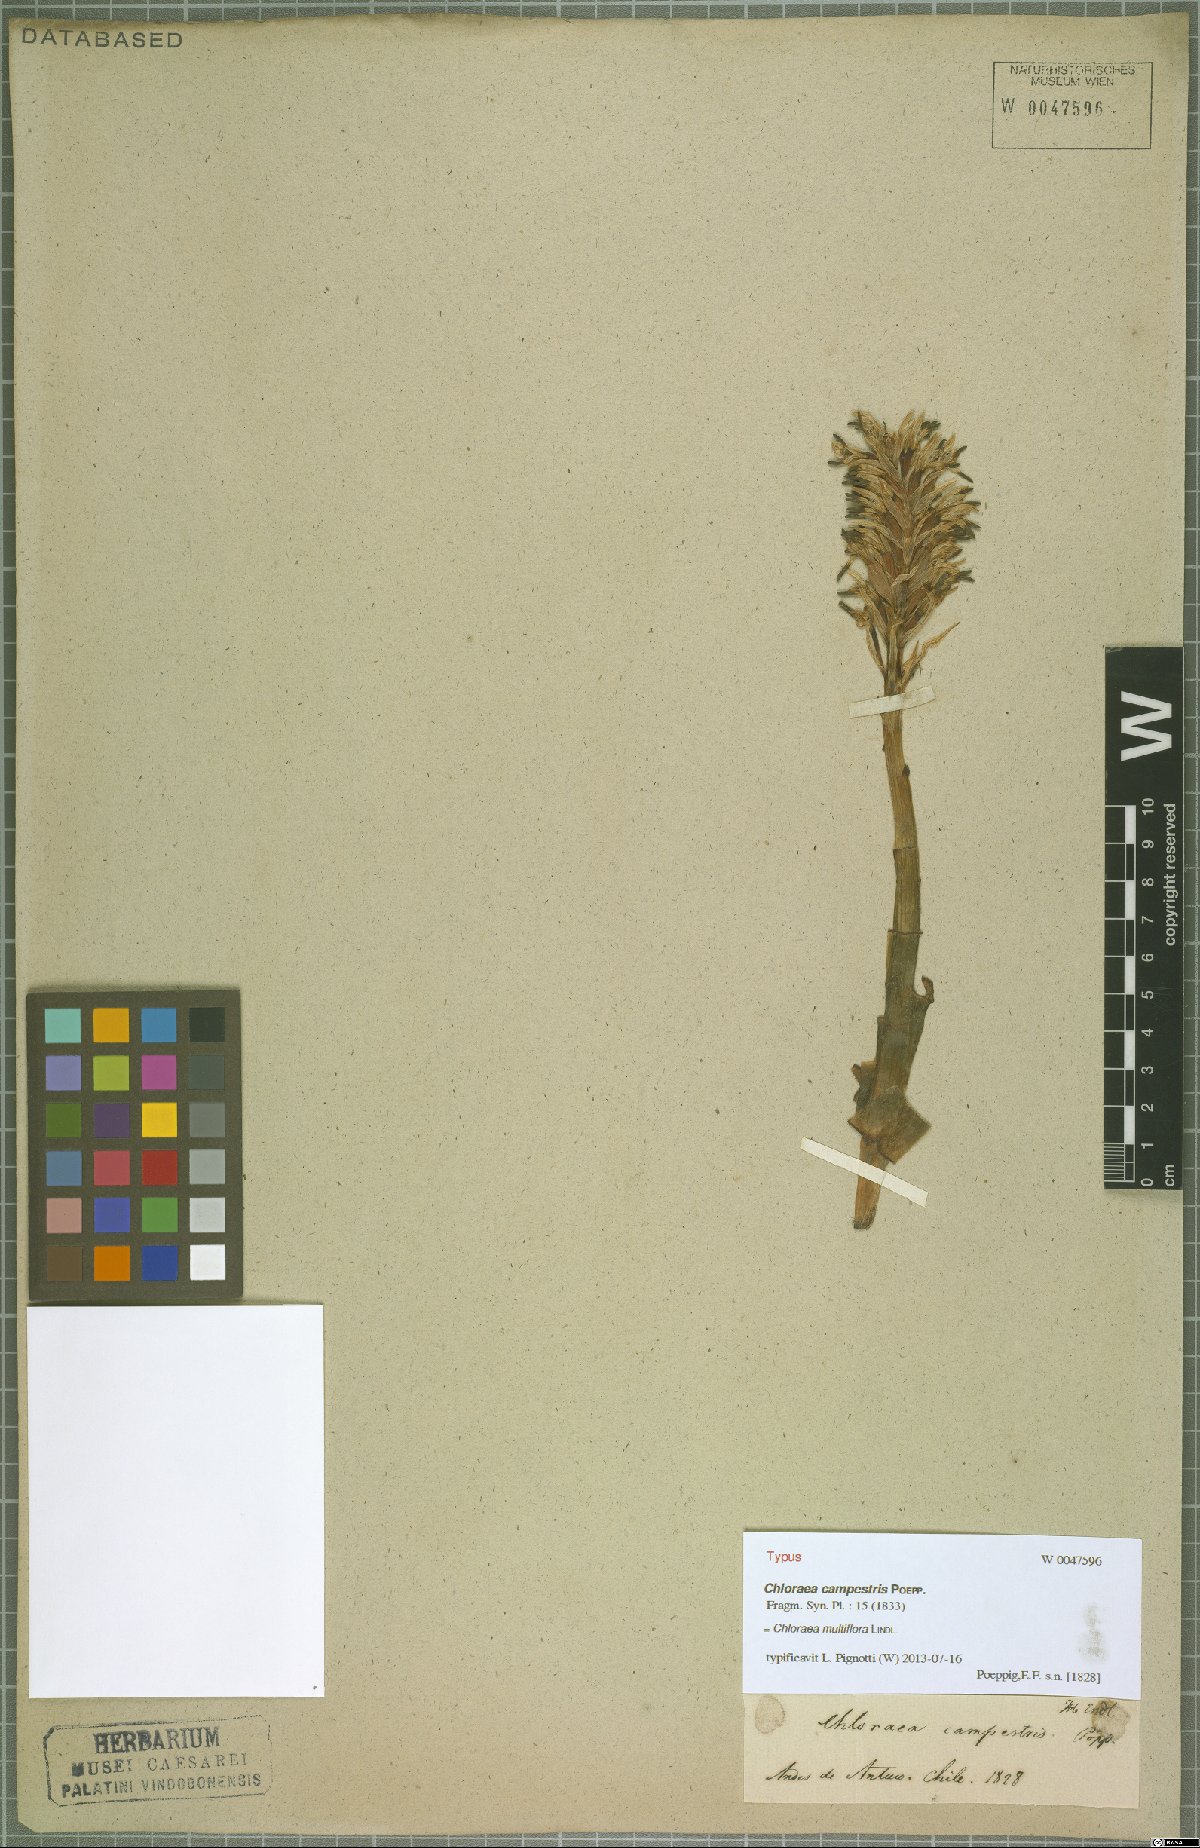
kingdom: Plantae
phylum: Tracheophyta
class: Liliopsida
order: Asparagales
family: Orchidaceae
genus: Chloraea
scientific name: Chloraea multiflora
